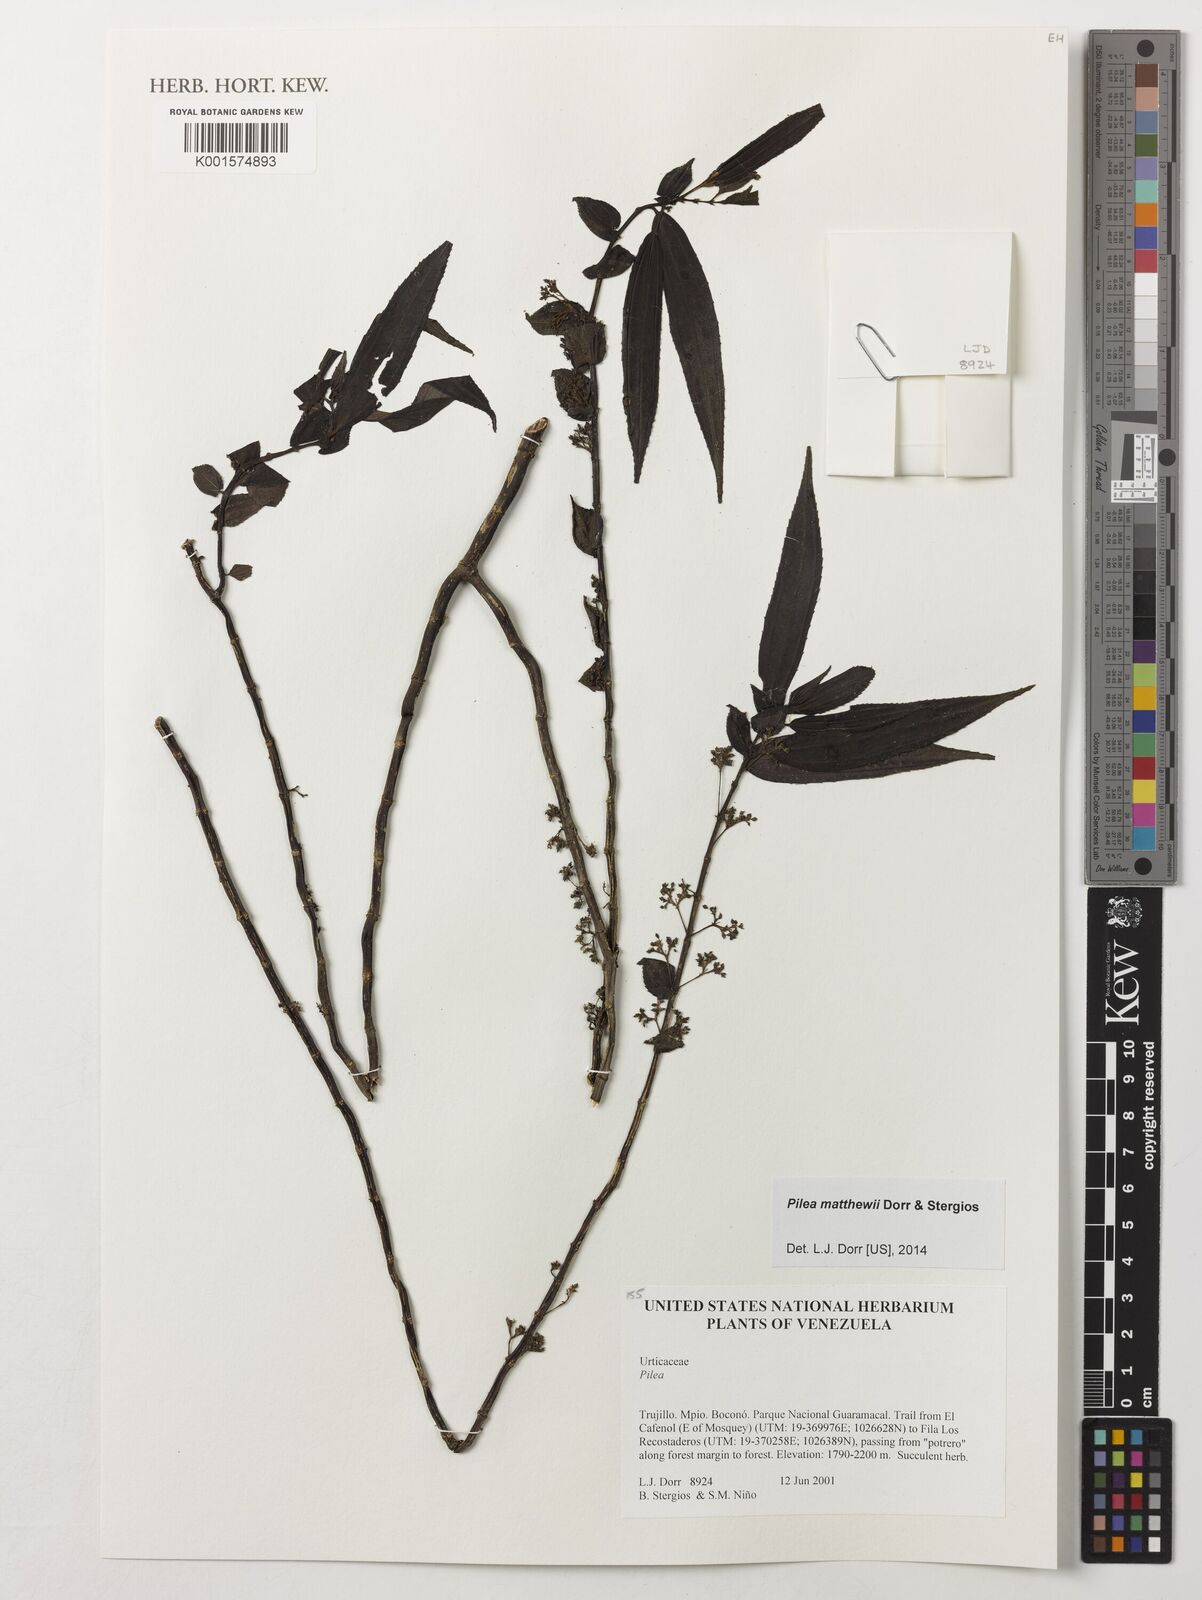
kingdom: Plantae
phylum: Tracheophyta
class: Magnoliopsida
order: Rosales
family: Urticaceae
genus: Pilea
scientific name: Pilea matthewii
